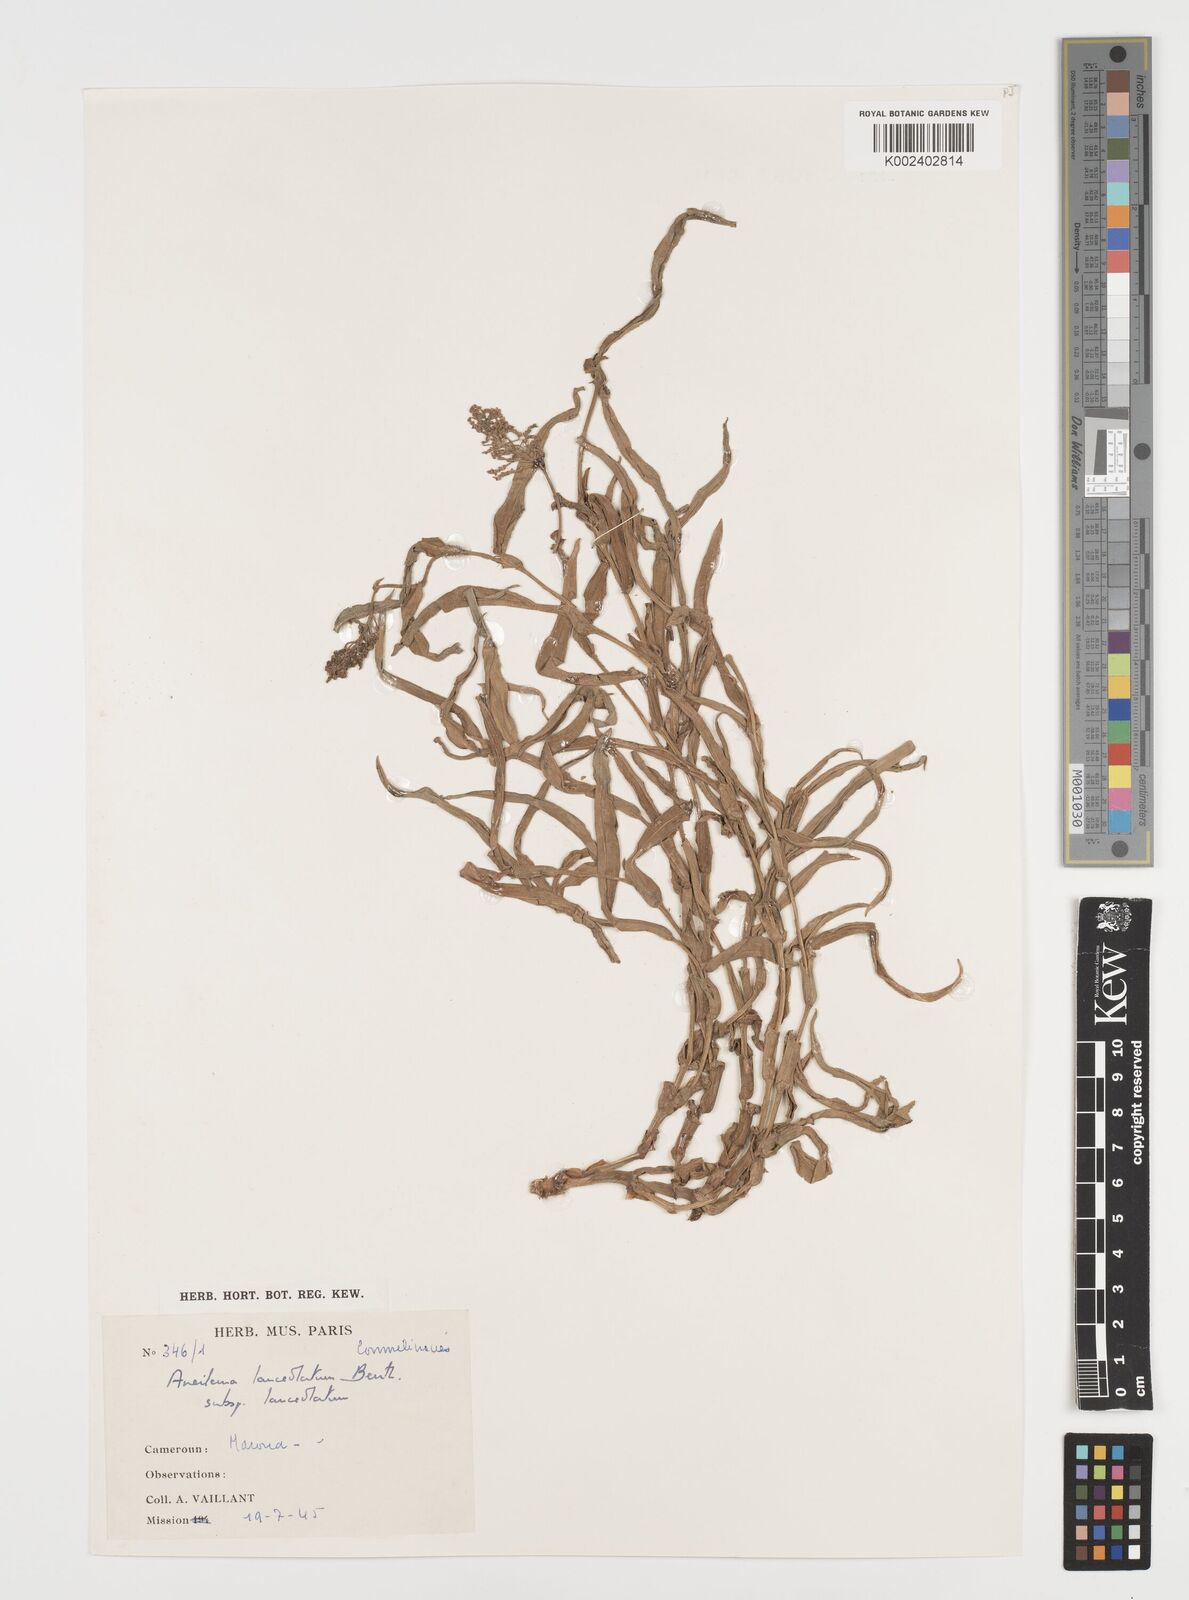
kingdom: Plantae
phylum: Tracheophyta
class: Liliopsida
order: Commelinales
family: Commelinaceae
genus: Aneilema
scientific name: Aneilema lanceolatum
